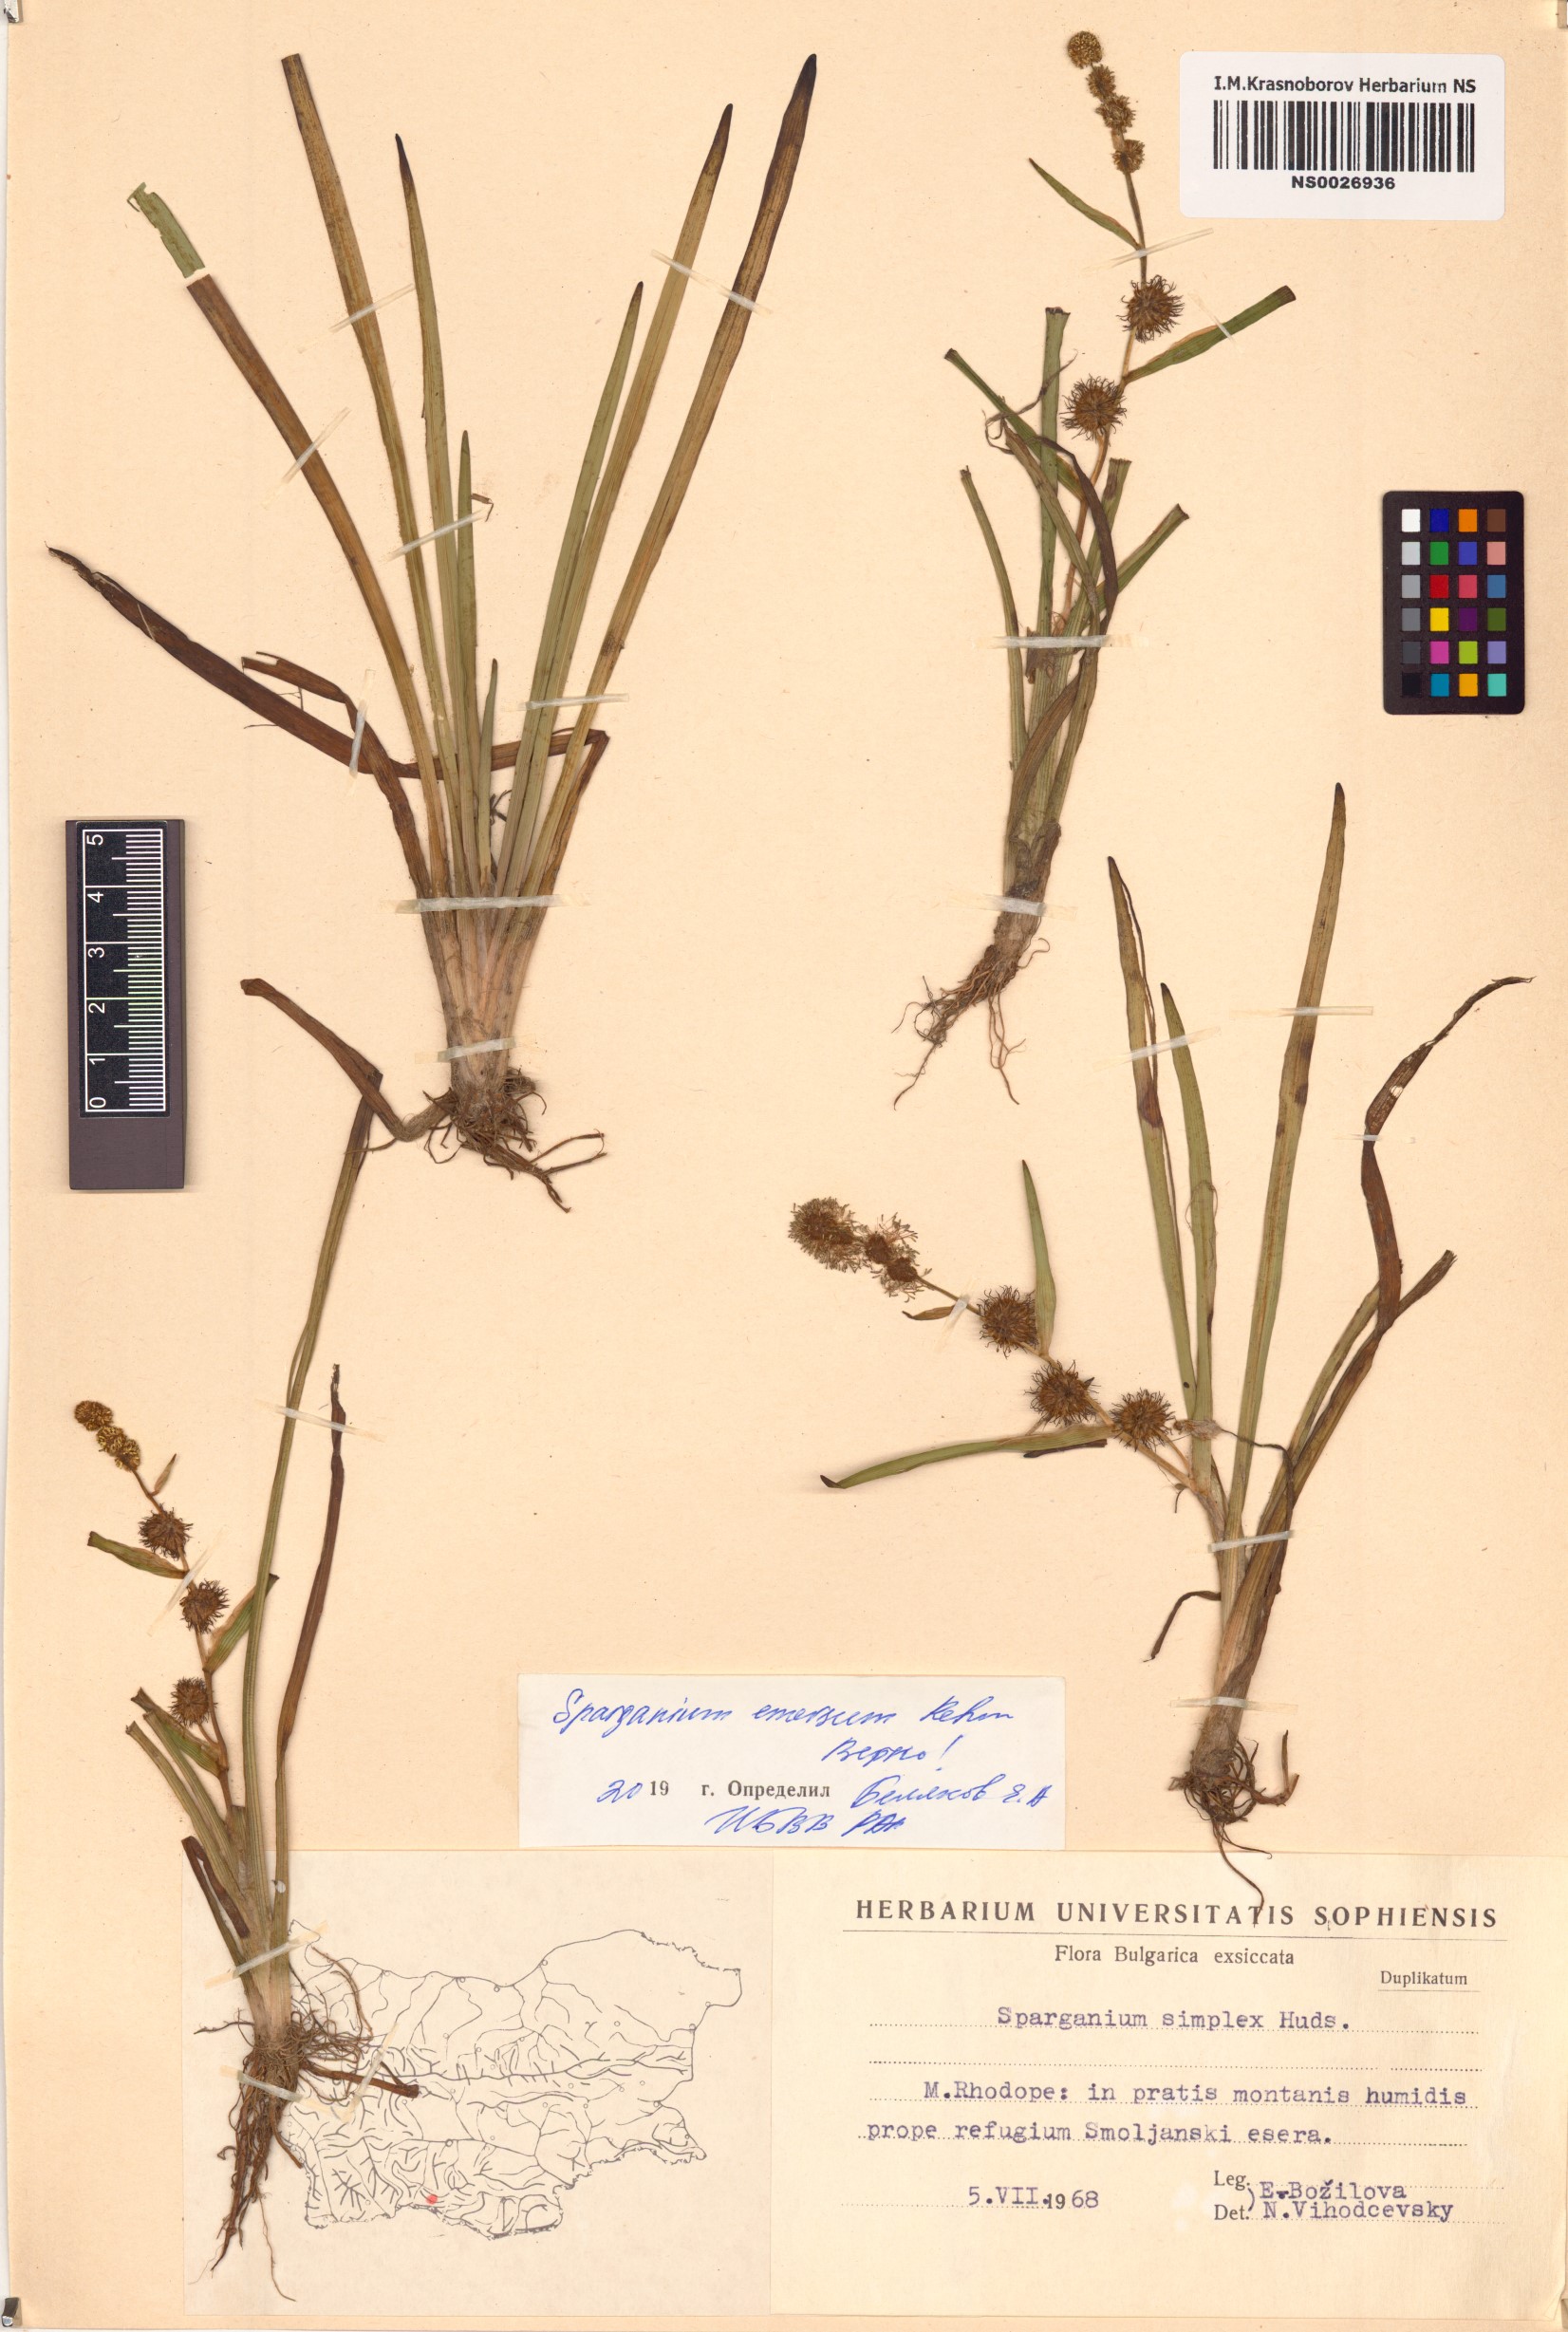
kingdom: Plantae
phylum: Tracheophyta
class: Liliopsida
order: Poales
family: Typhaceae
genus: Sparganium
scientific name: Sparganium emersum
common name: Unbranched bur-reed
